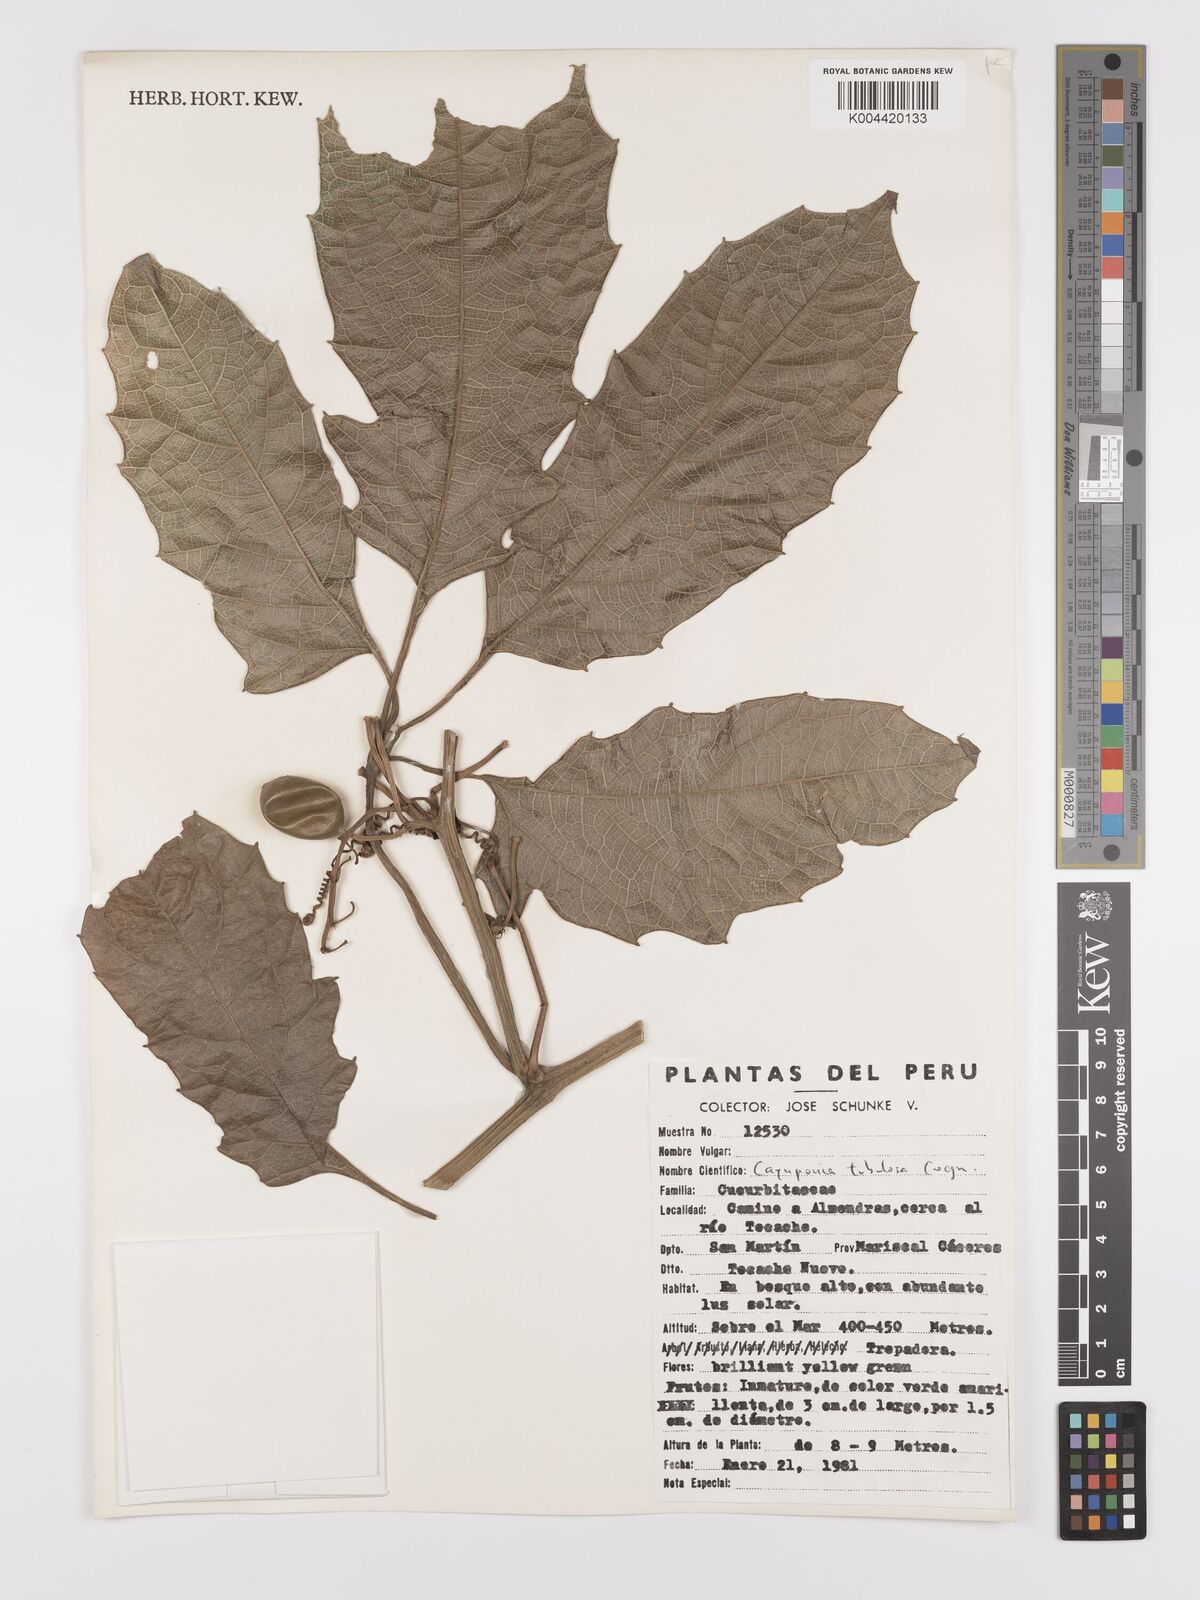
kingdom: Plantae
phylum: Tracheophyta
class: Magnoliopsida
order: Cucurbitales
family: Cucurbitaceae
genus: Cayaponia
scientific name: Cayaponia tubulosa
